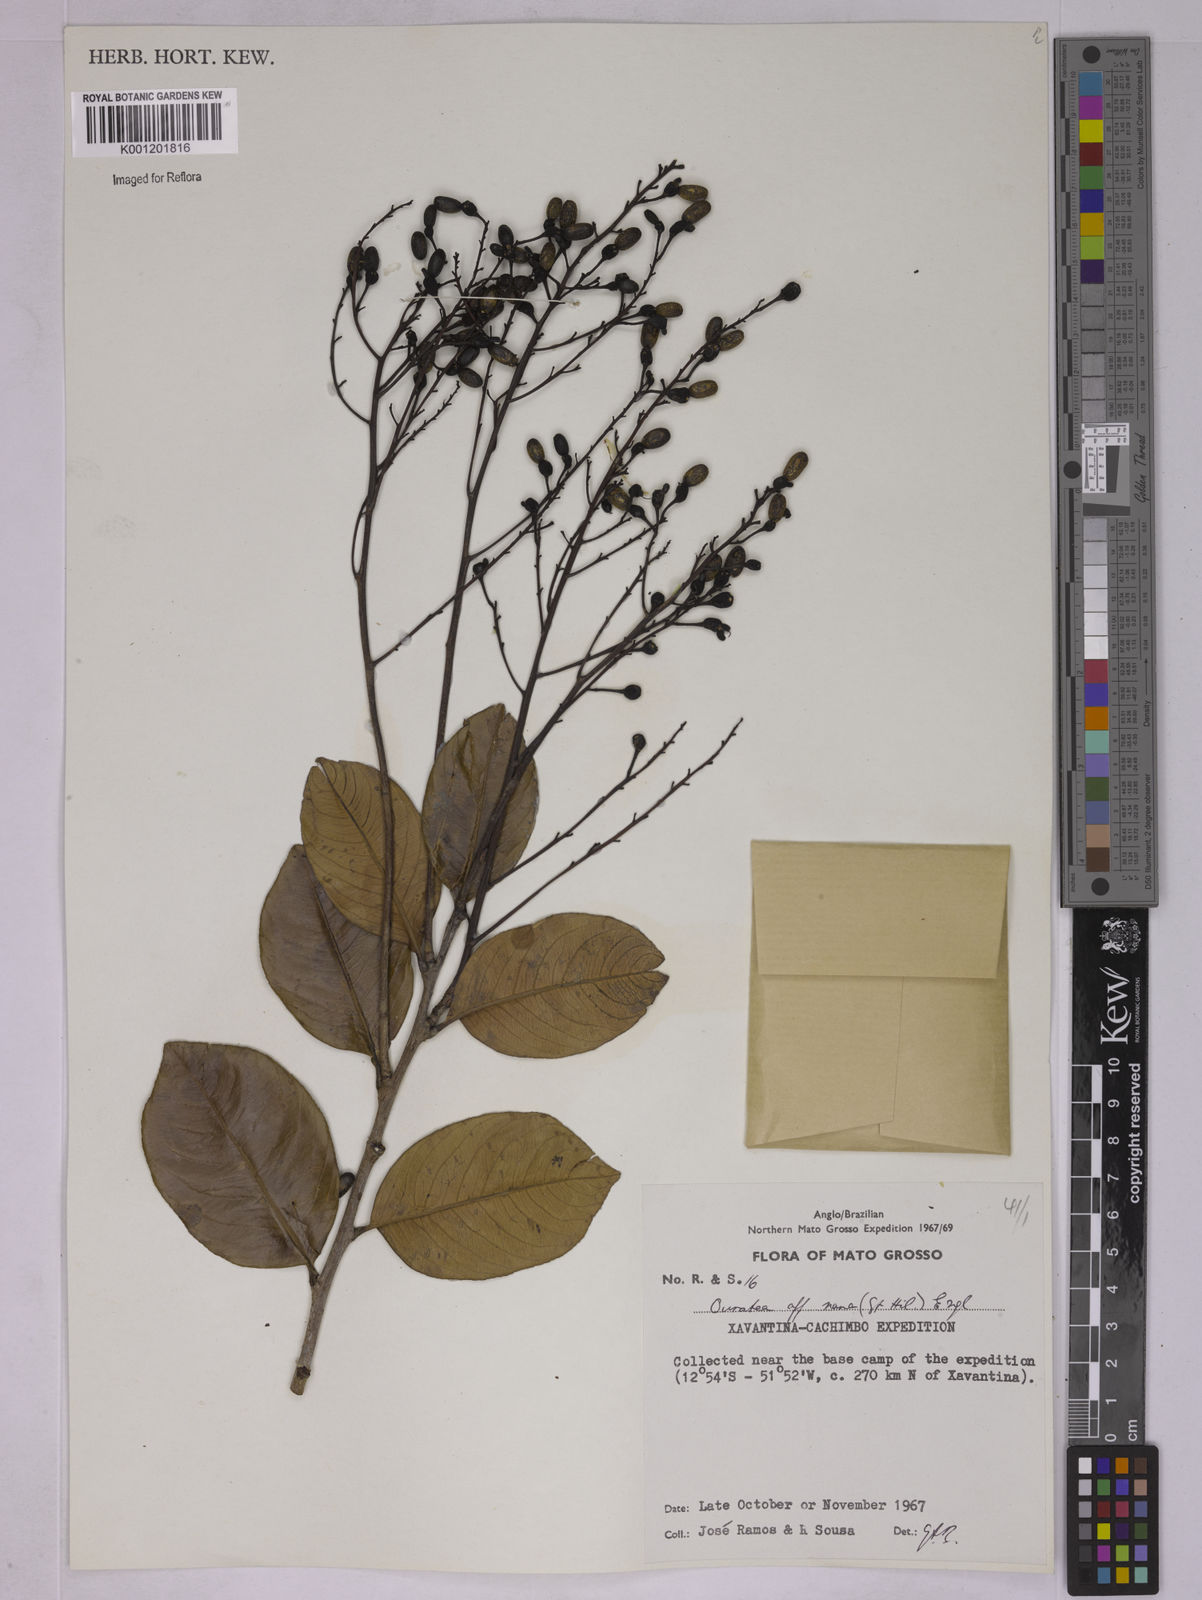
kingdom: Plantae
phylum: Tracheophyta
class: Magnoliopsida
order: Malpighiales
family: Ochnaceae
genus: Ouratea
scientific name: Ouratea nana
